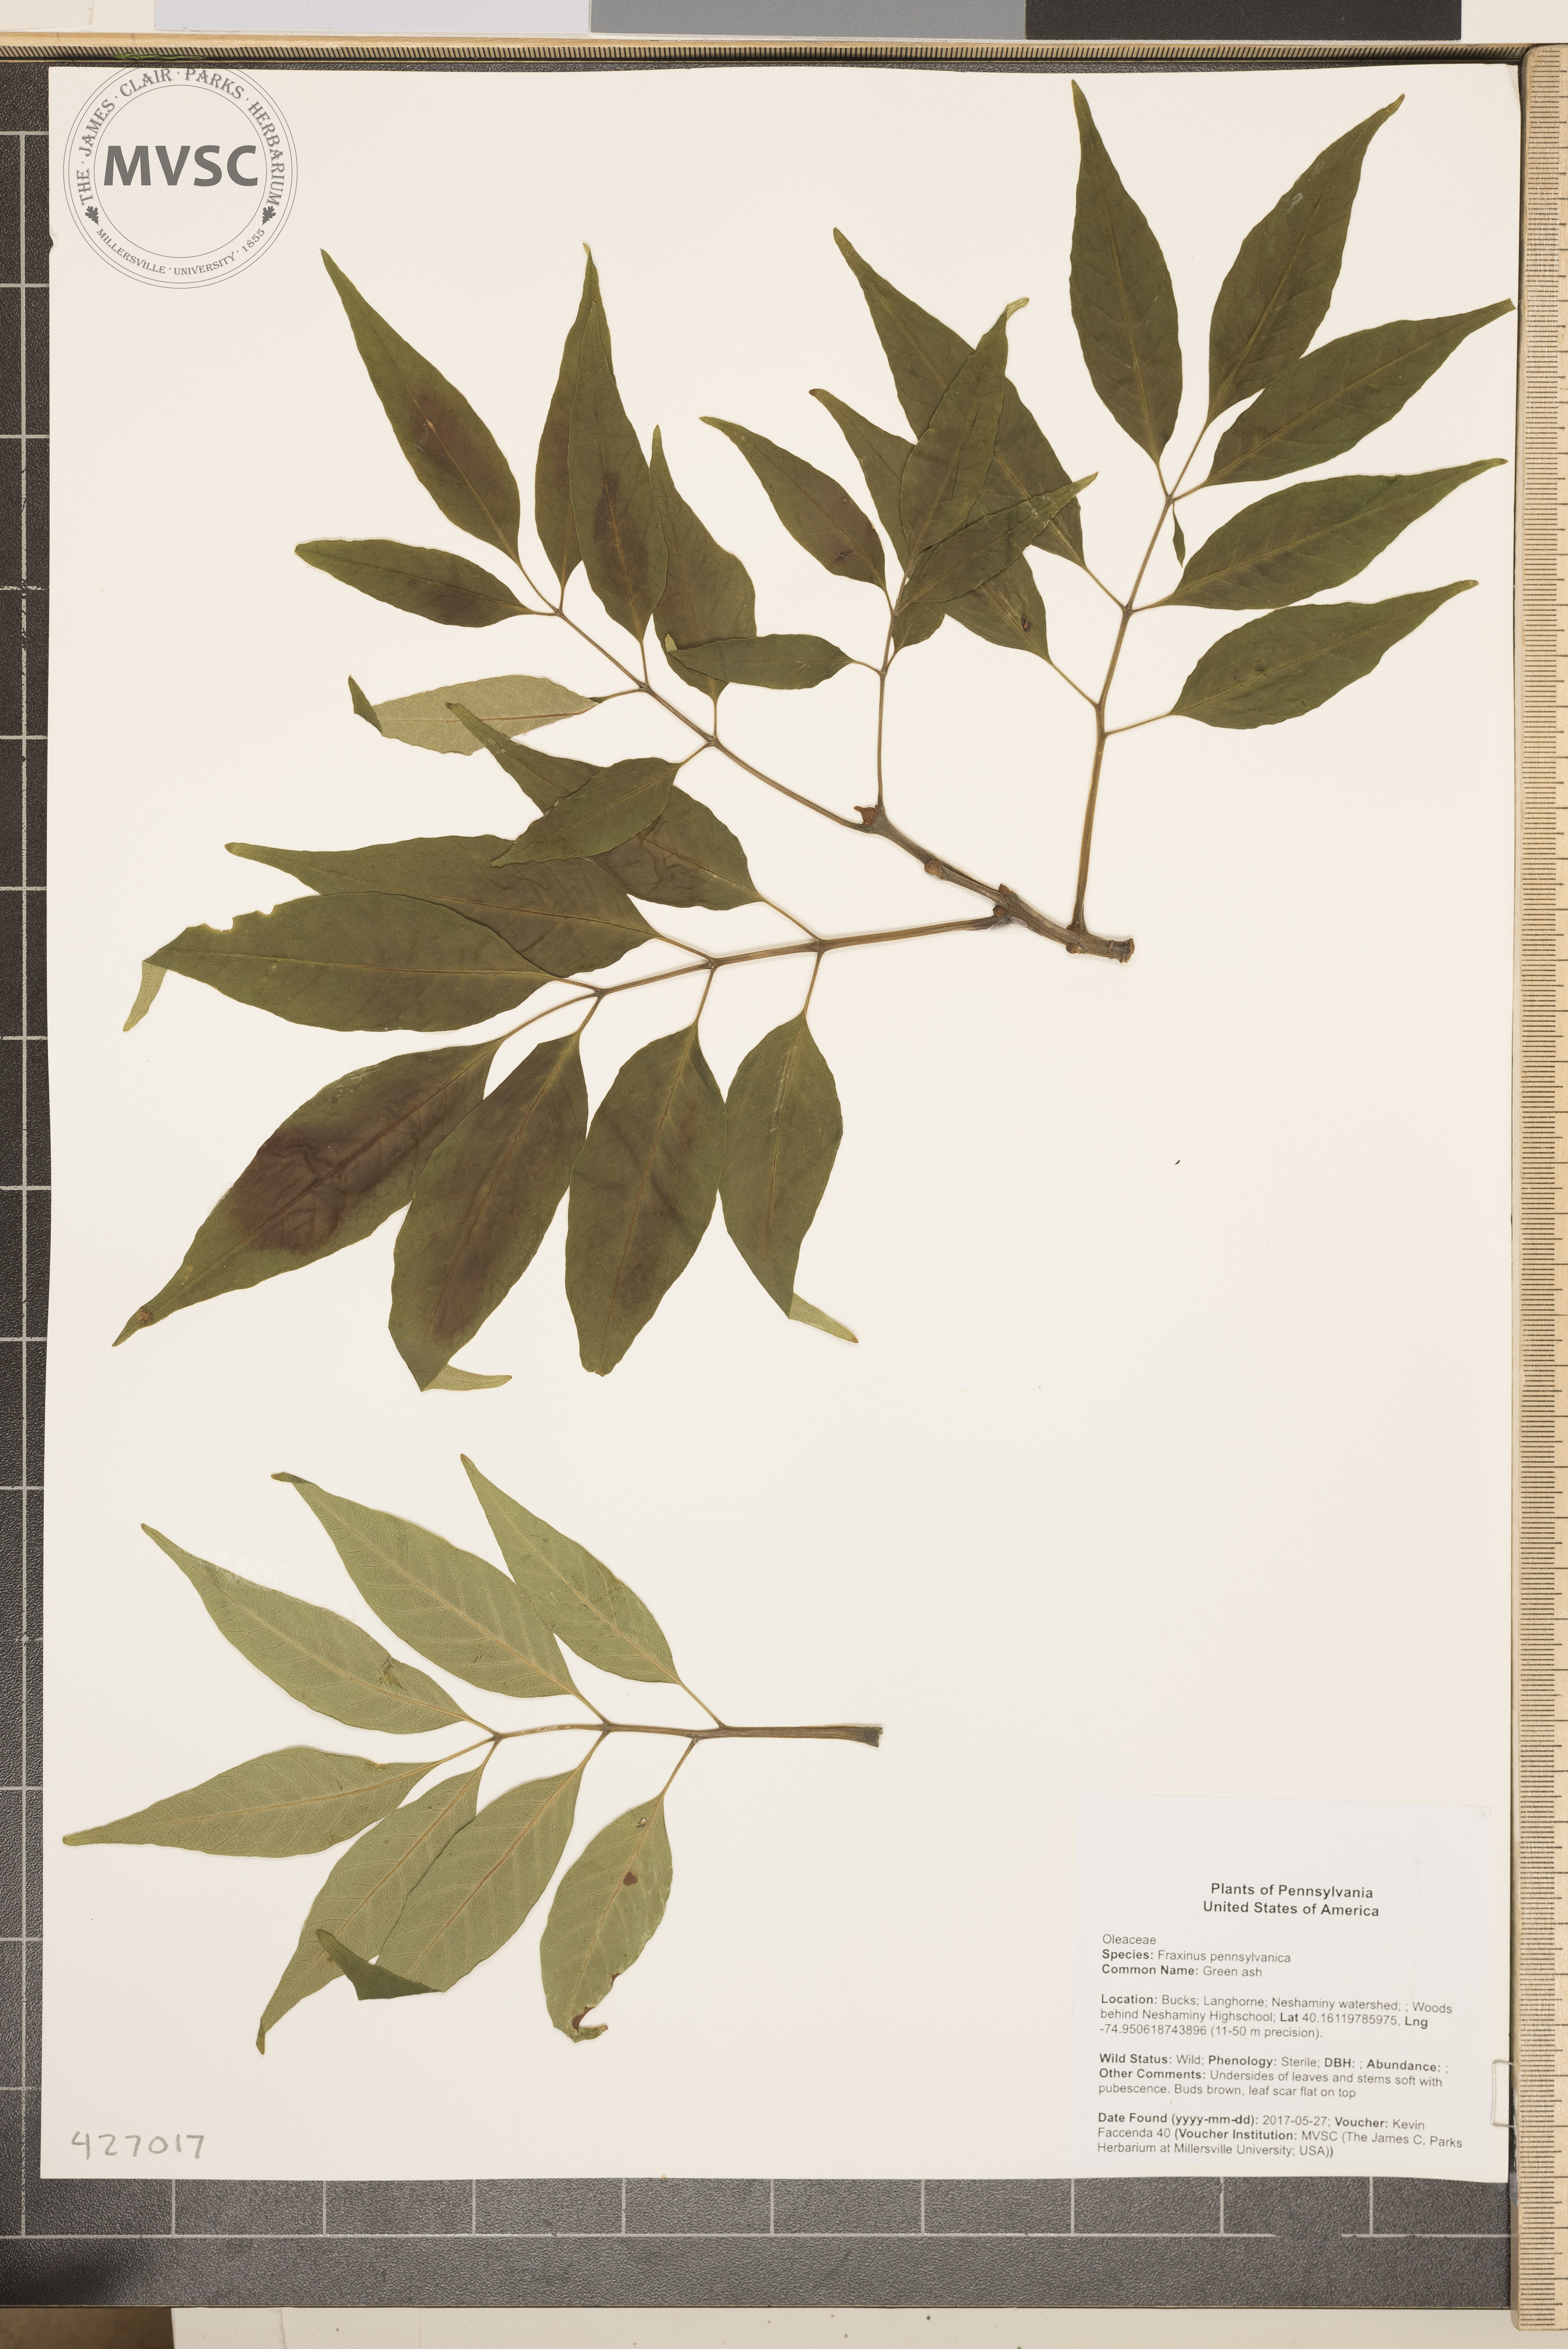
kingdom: Plantae
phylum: Tracheophyta
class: Magnoliopsida
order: Lamiales
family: Oleaceae
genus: Fraxinus
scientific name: Fraxinus pennsylvanica
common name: Green ash
